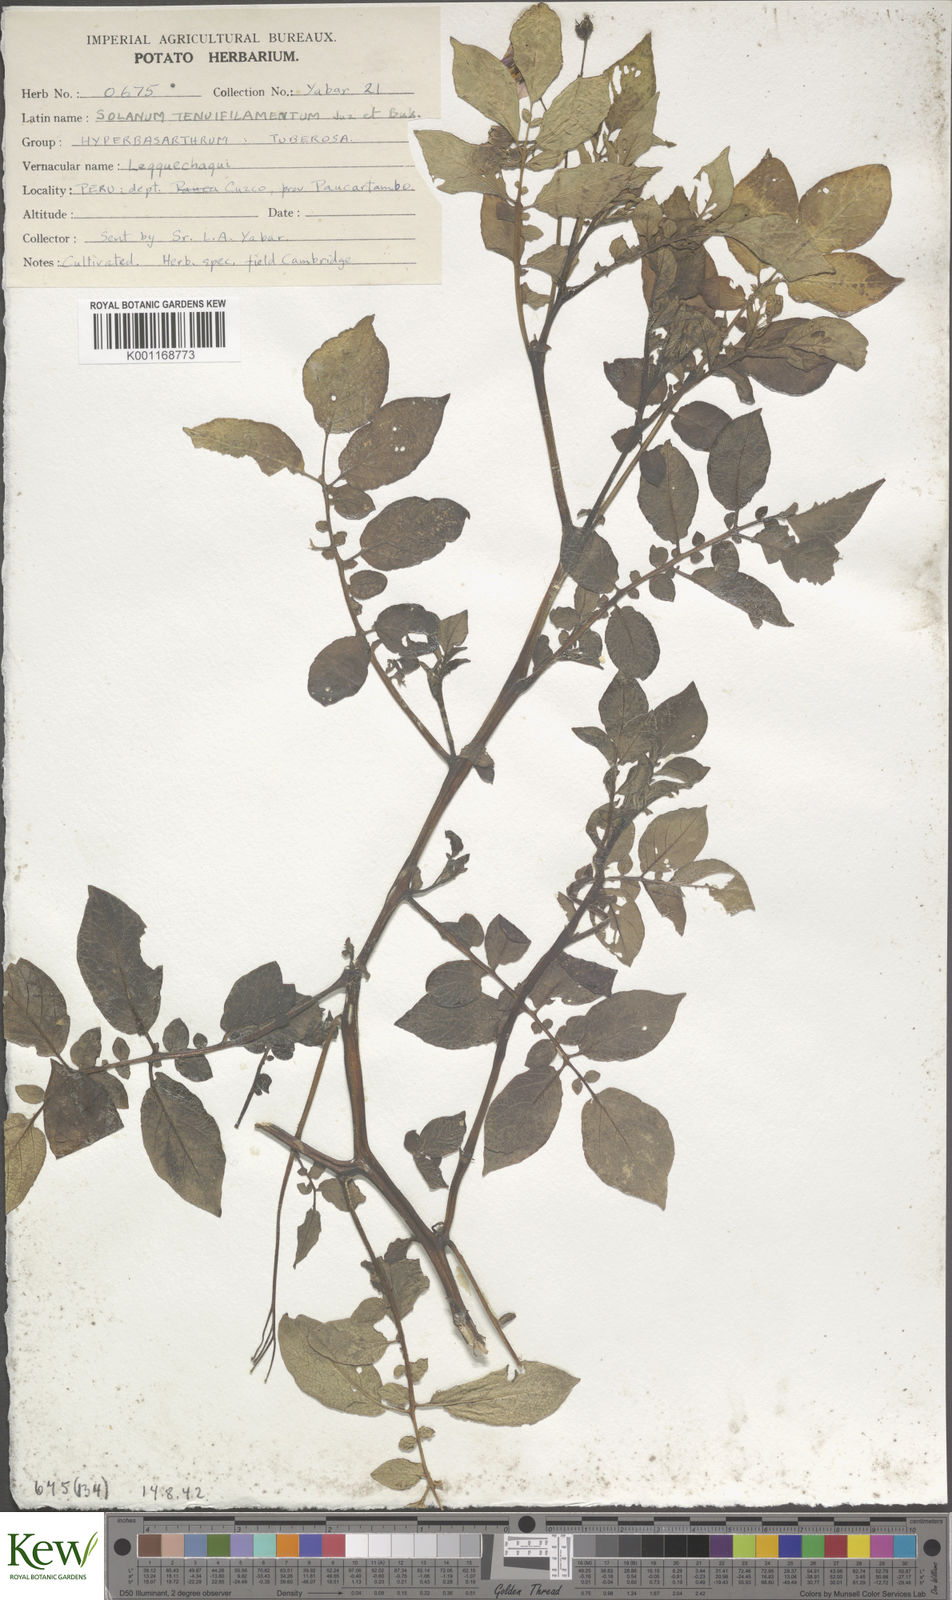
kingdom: Plantae
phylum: Tracheophyta
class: Magnoliopsida
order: Solanales
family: Solanaceae
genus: Solanum
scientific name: Solanum chaucha
